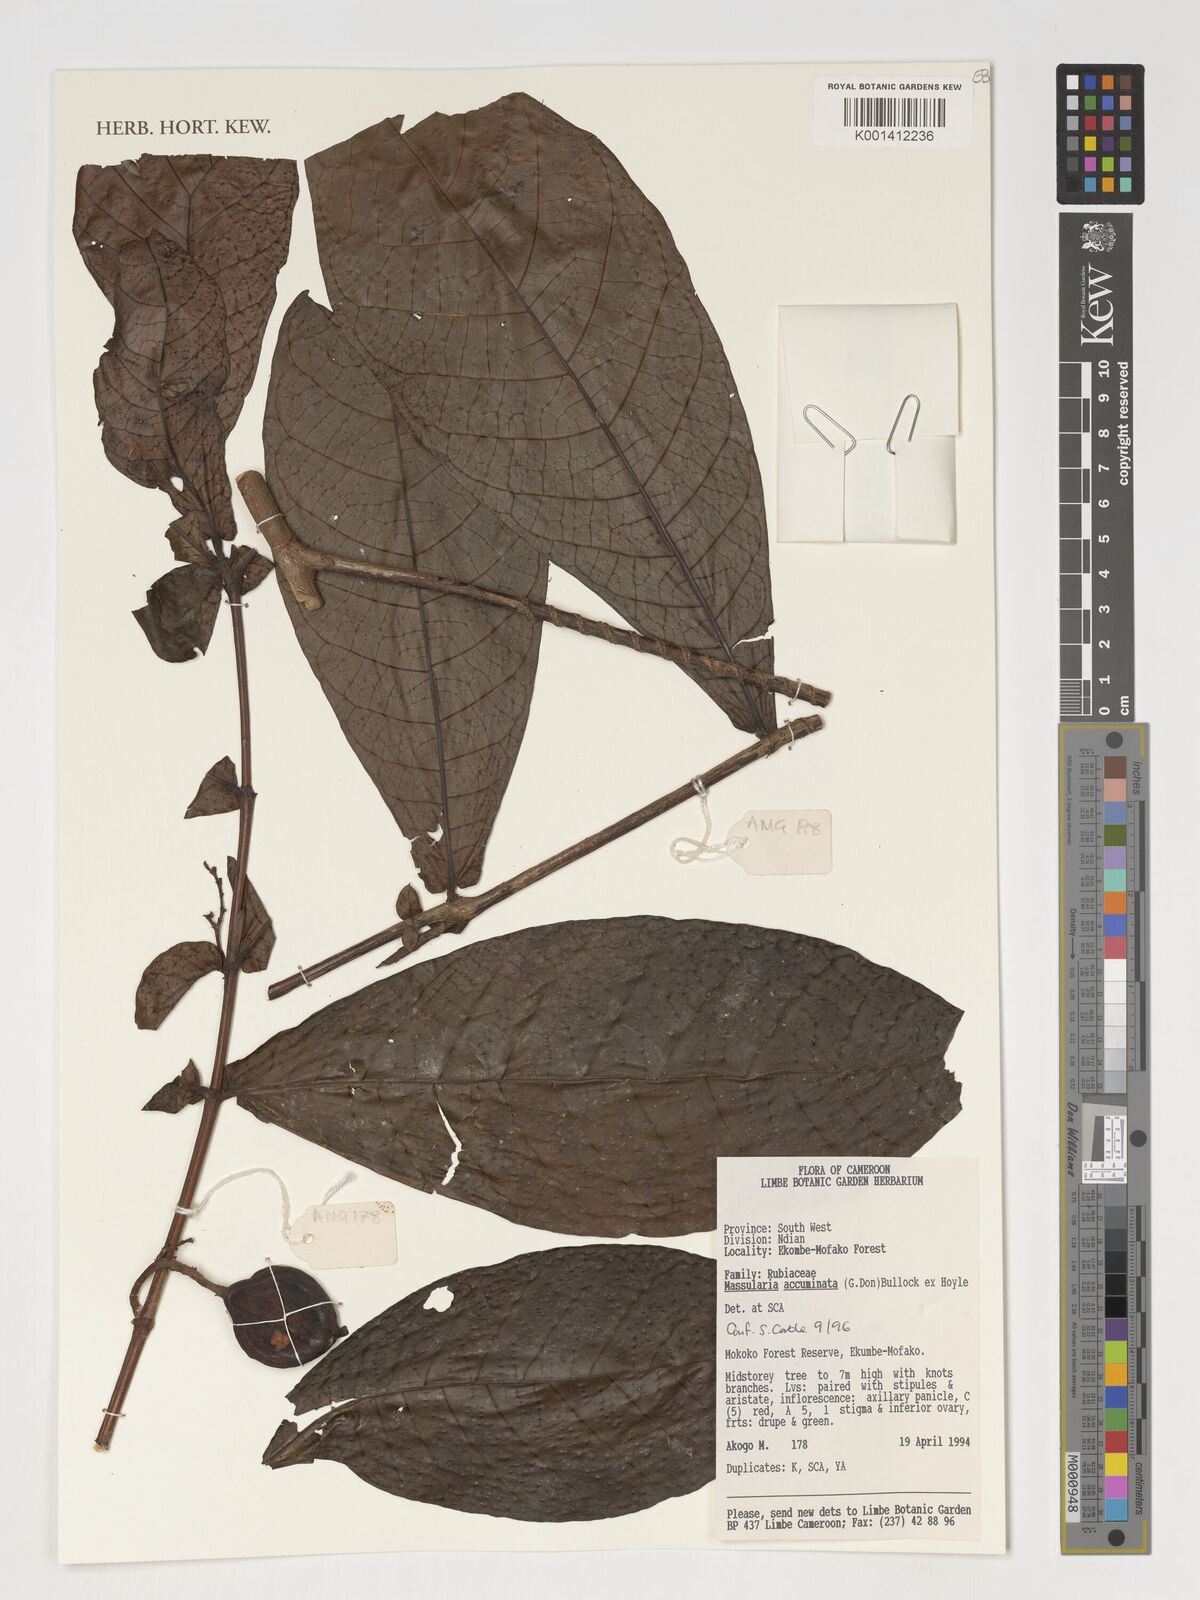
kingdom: Plantae
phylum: Tracheophyta
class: Magnoliopsida
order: Gentianales
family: Rubiaceae
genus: Massularia
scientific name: Massularia acuminata
